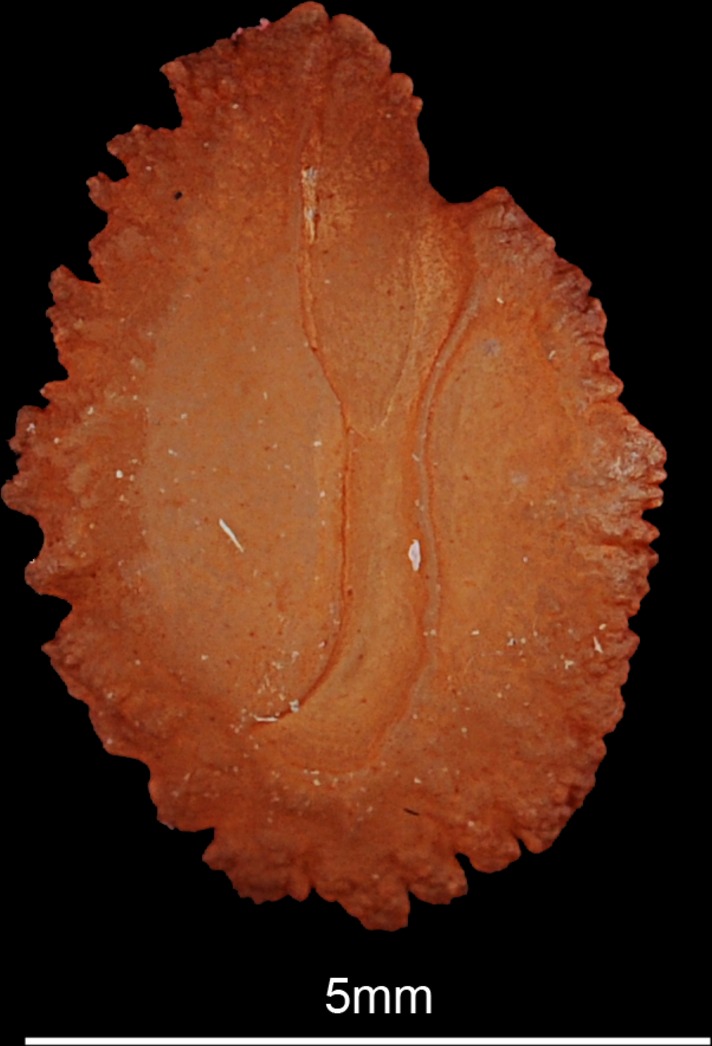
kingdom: Animalia
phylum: Chordata
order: Perciformes
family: Cichlidae
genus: Coptodon
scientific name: Coptodon zillii
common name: Redbelly tilapia
